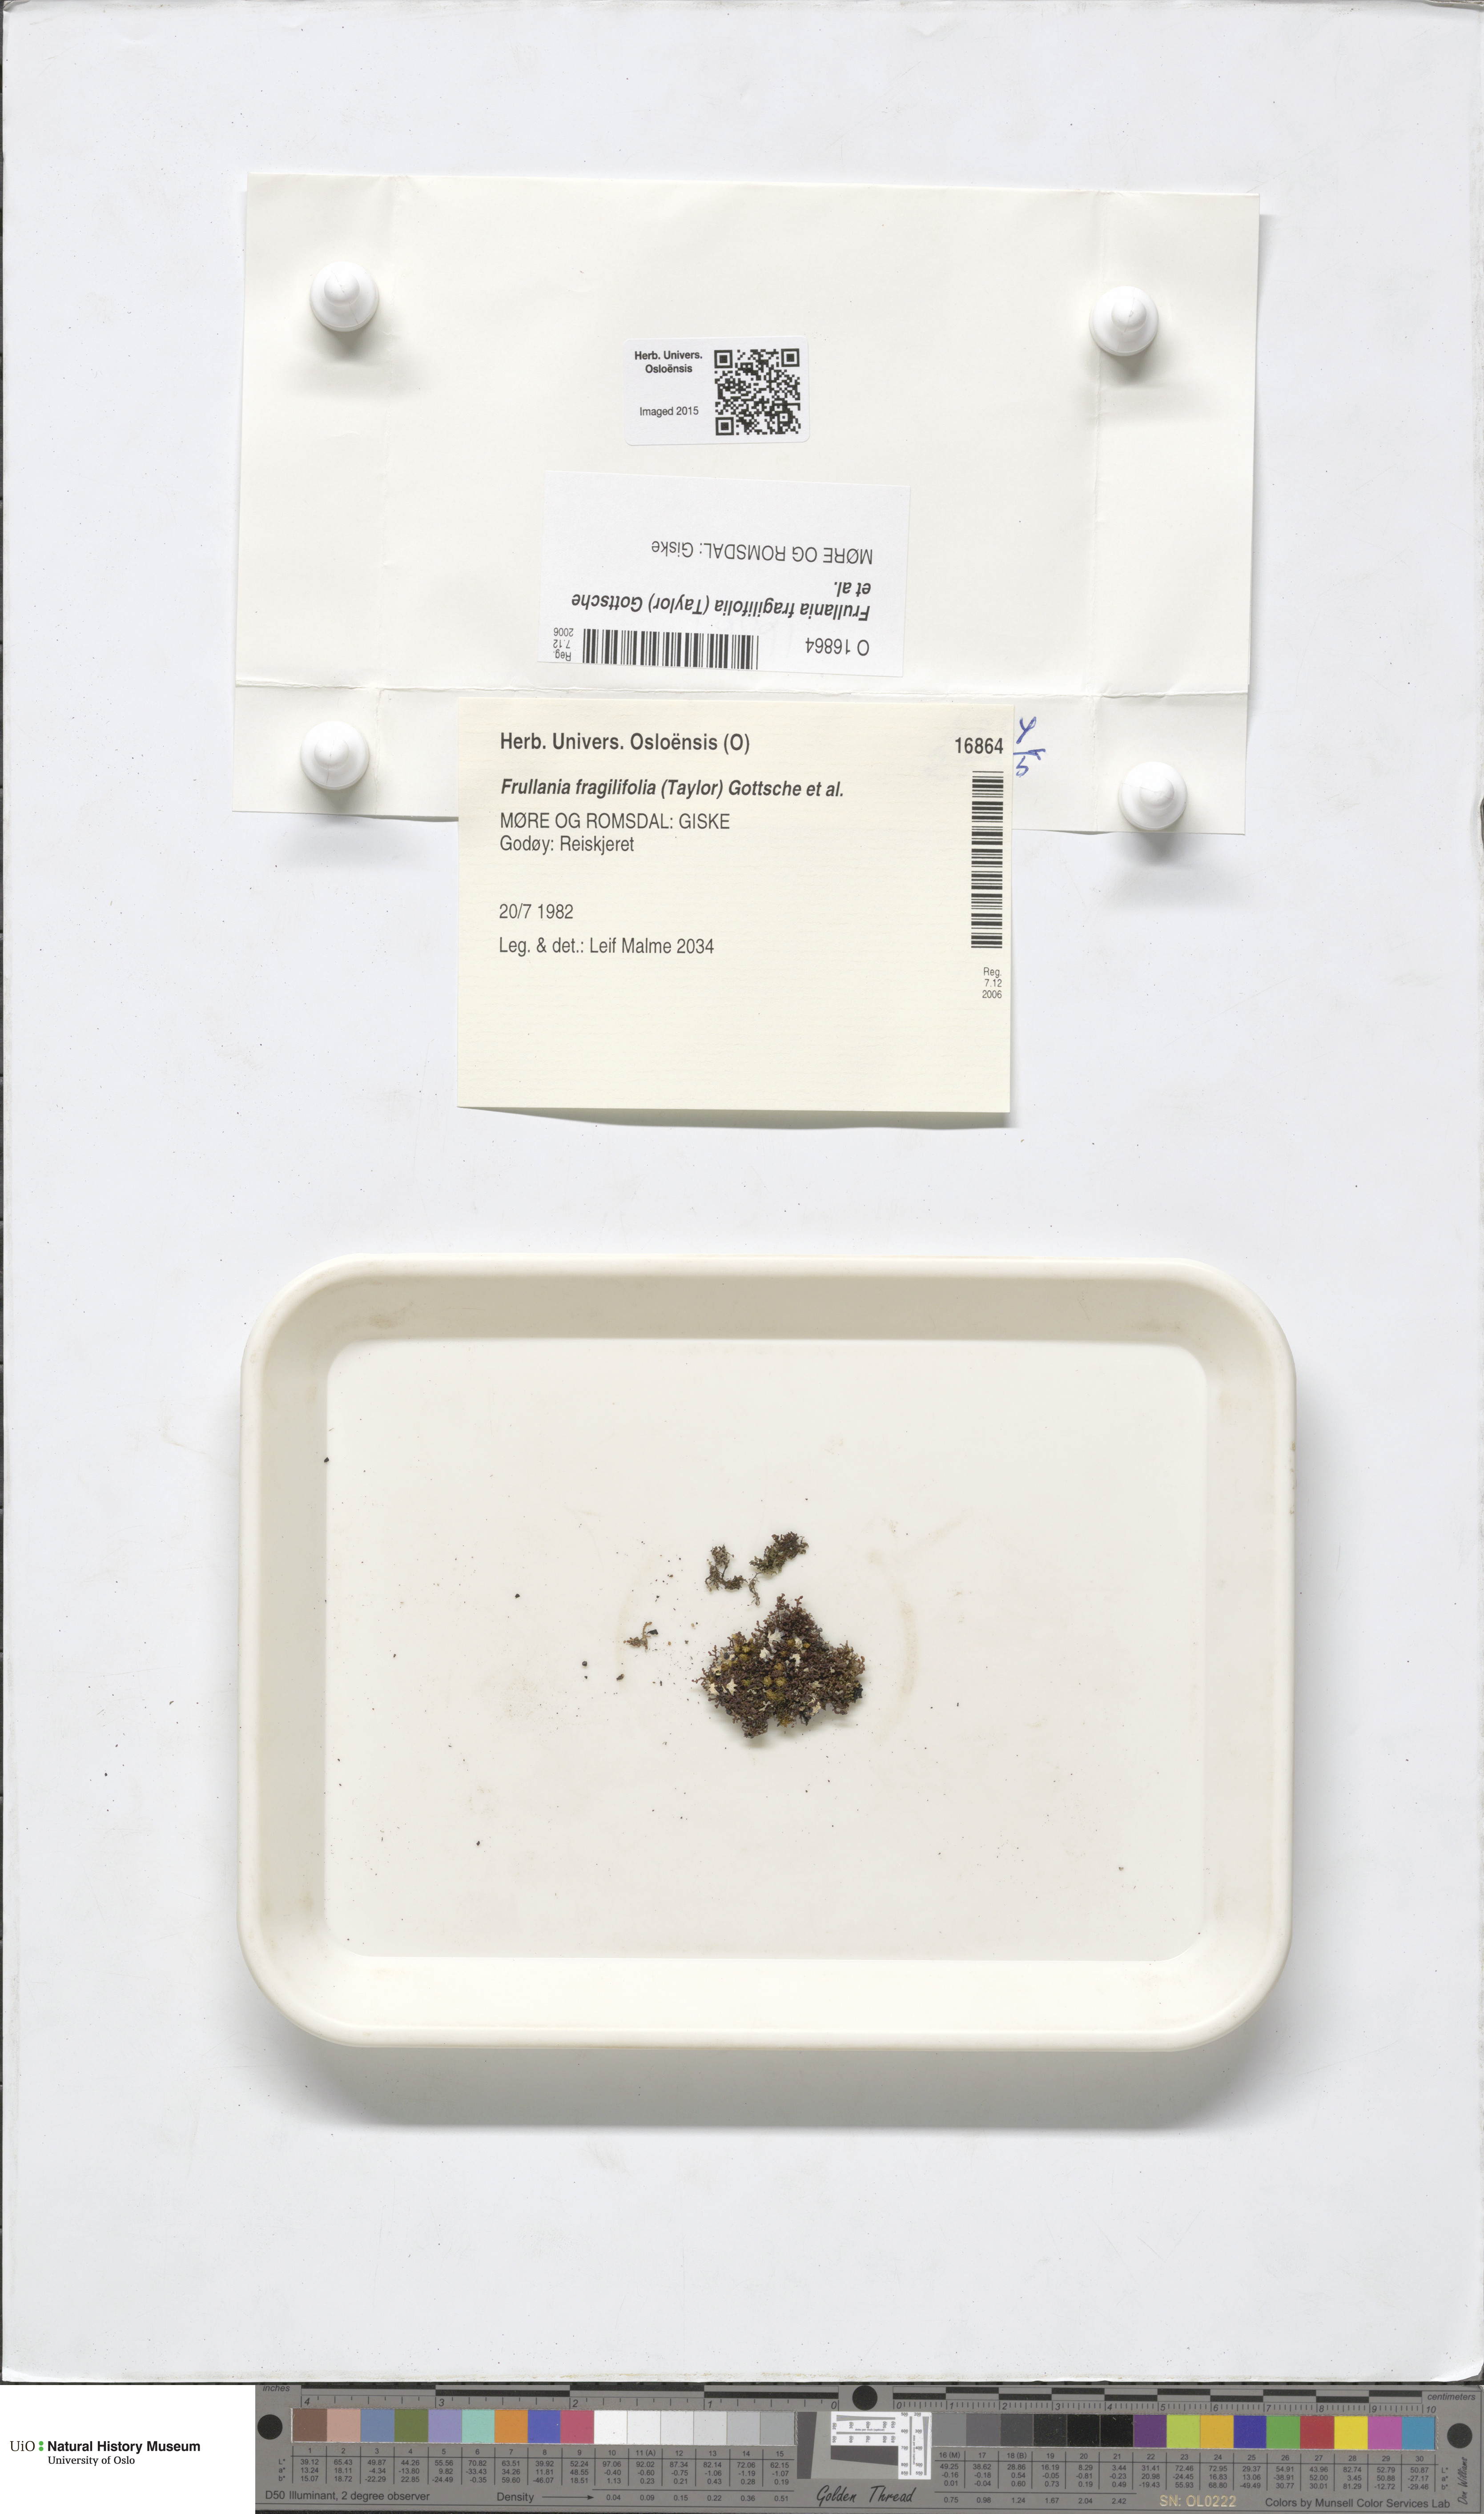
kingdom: Plantae
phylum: Marchantiophyta
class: Jungermanniopsida
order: Porellales
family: Frullaniaceae
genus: Frullania
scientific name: Frullania fragilifolia
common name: Spotty scalewort
